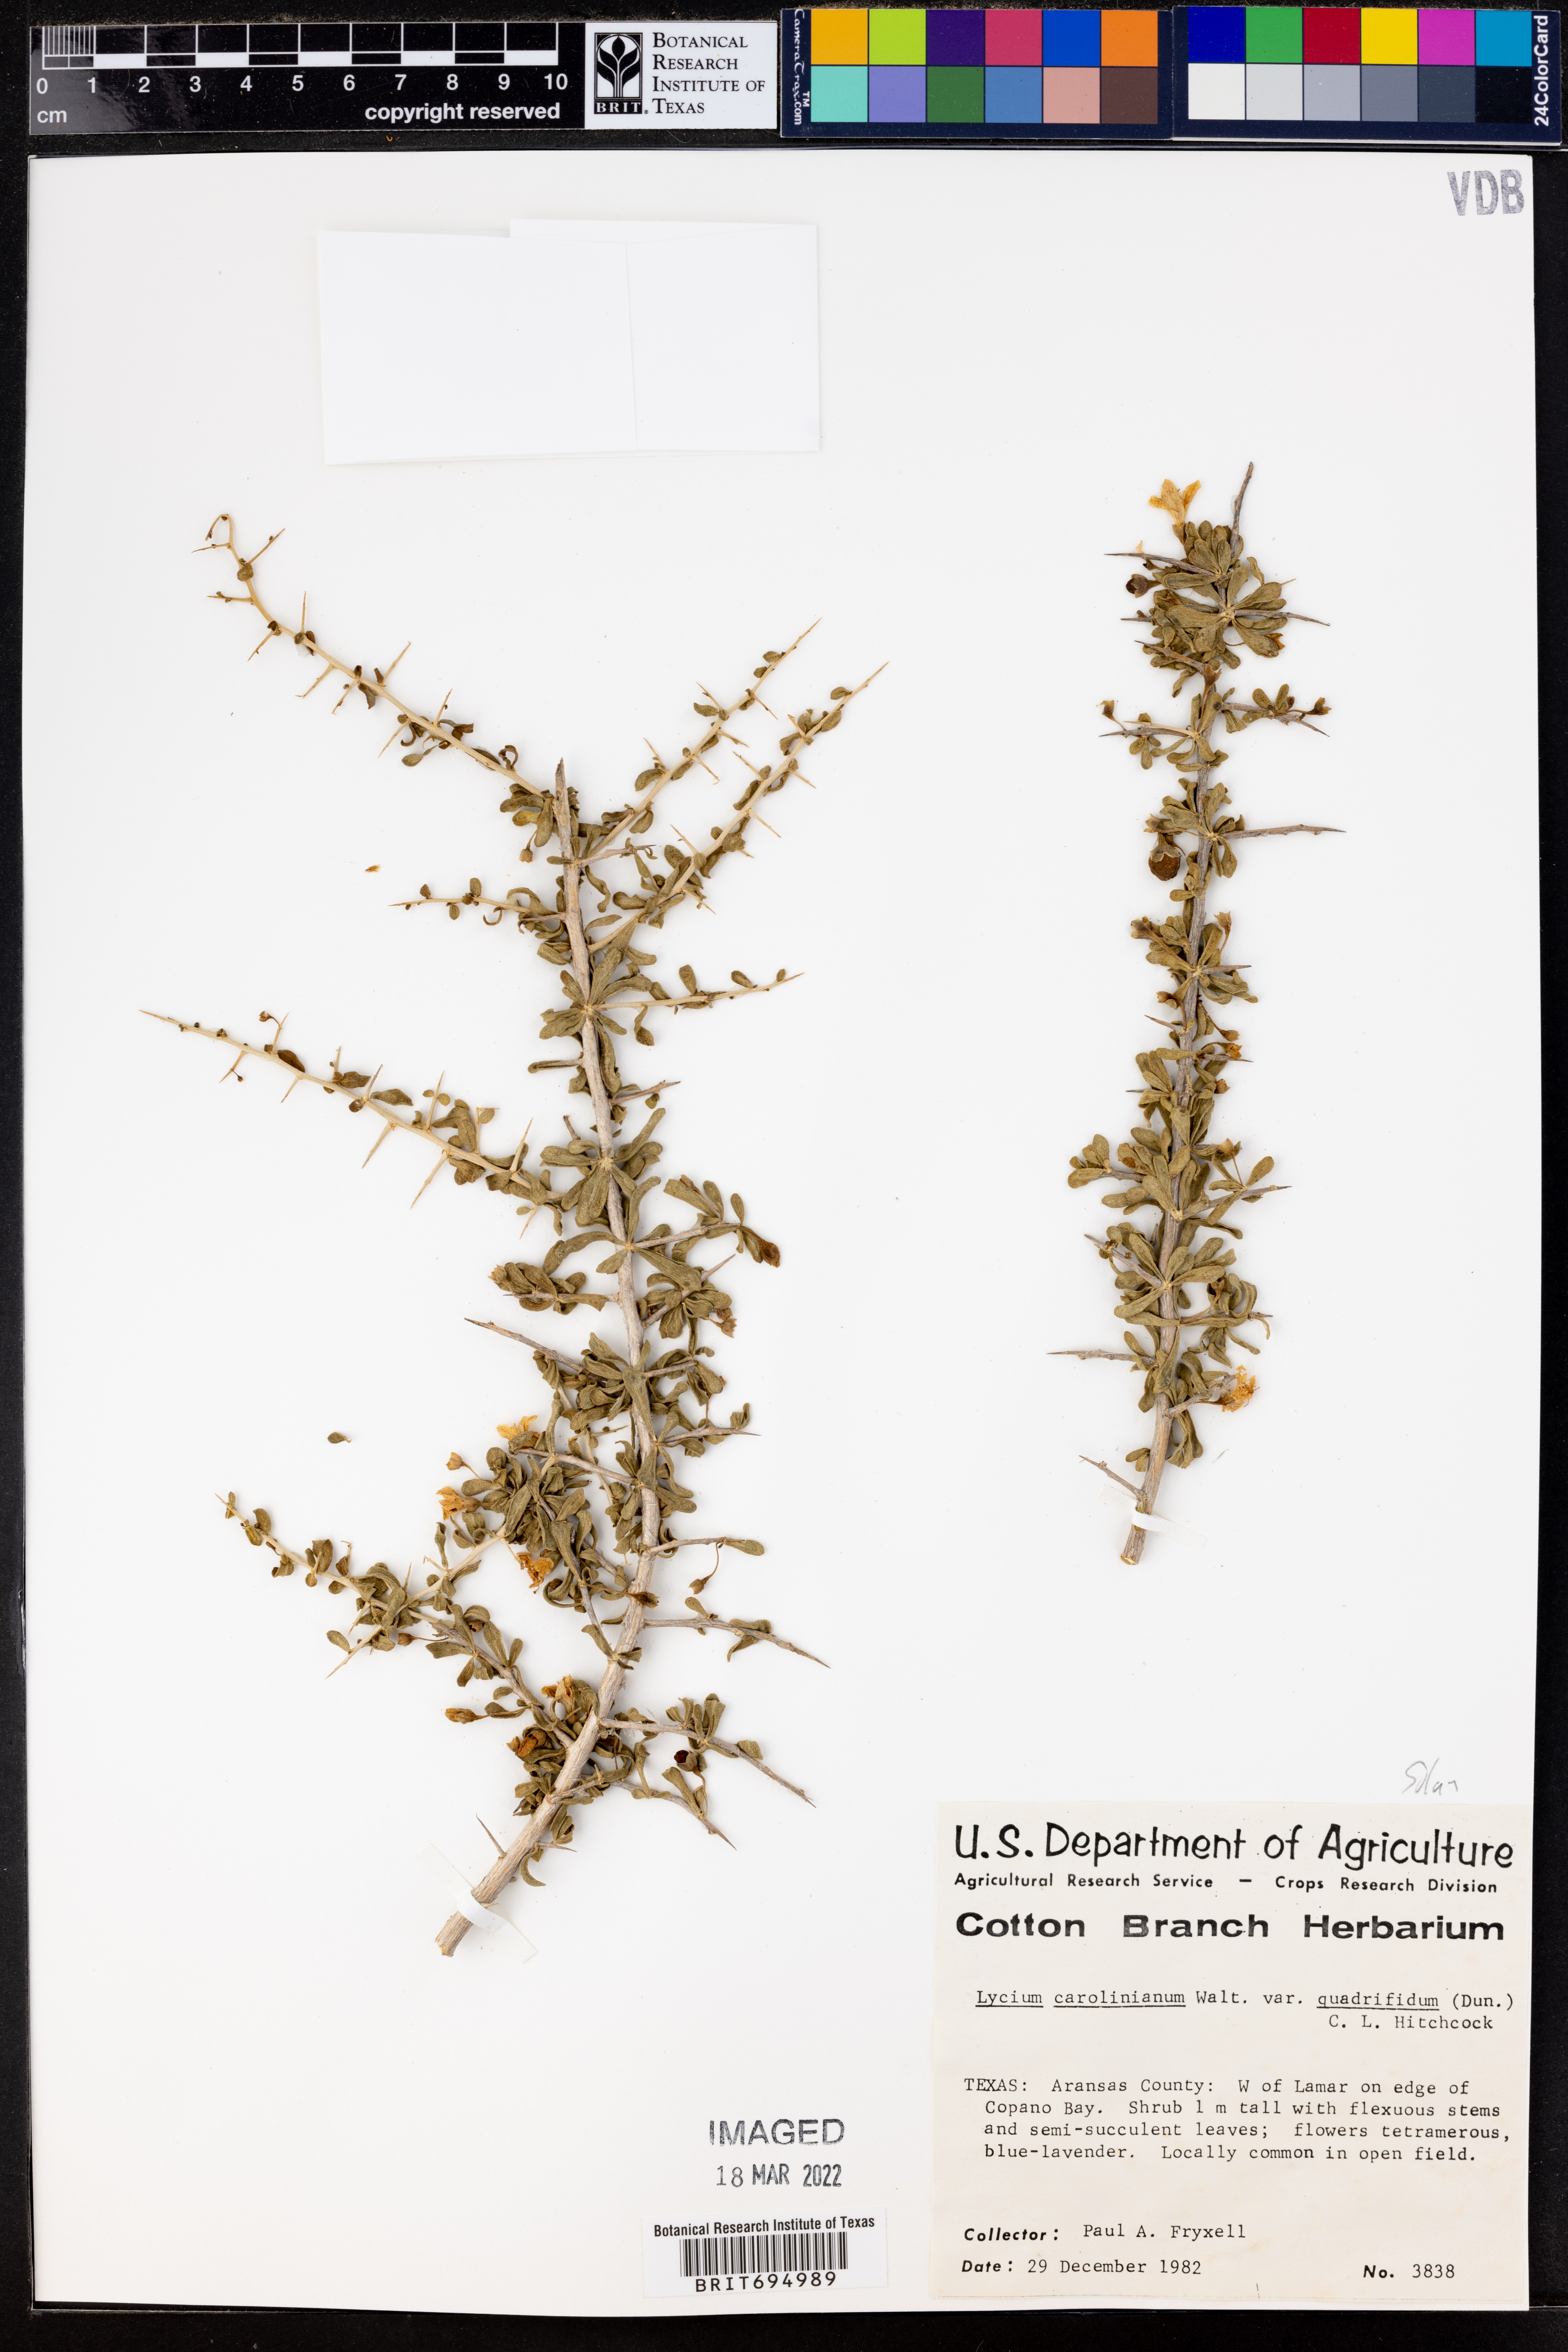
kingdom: Plantae
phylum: Tracheophyta
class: Magnoliopsida
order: Solanales
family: Solanaceae
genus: Lycium
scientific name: Lycium carolinianum
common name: Christmasberry
